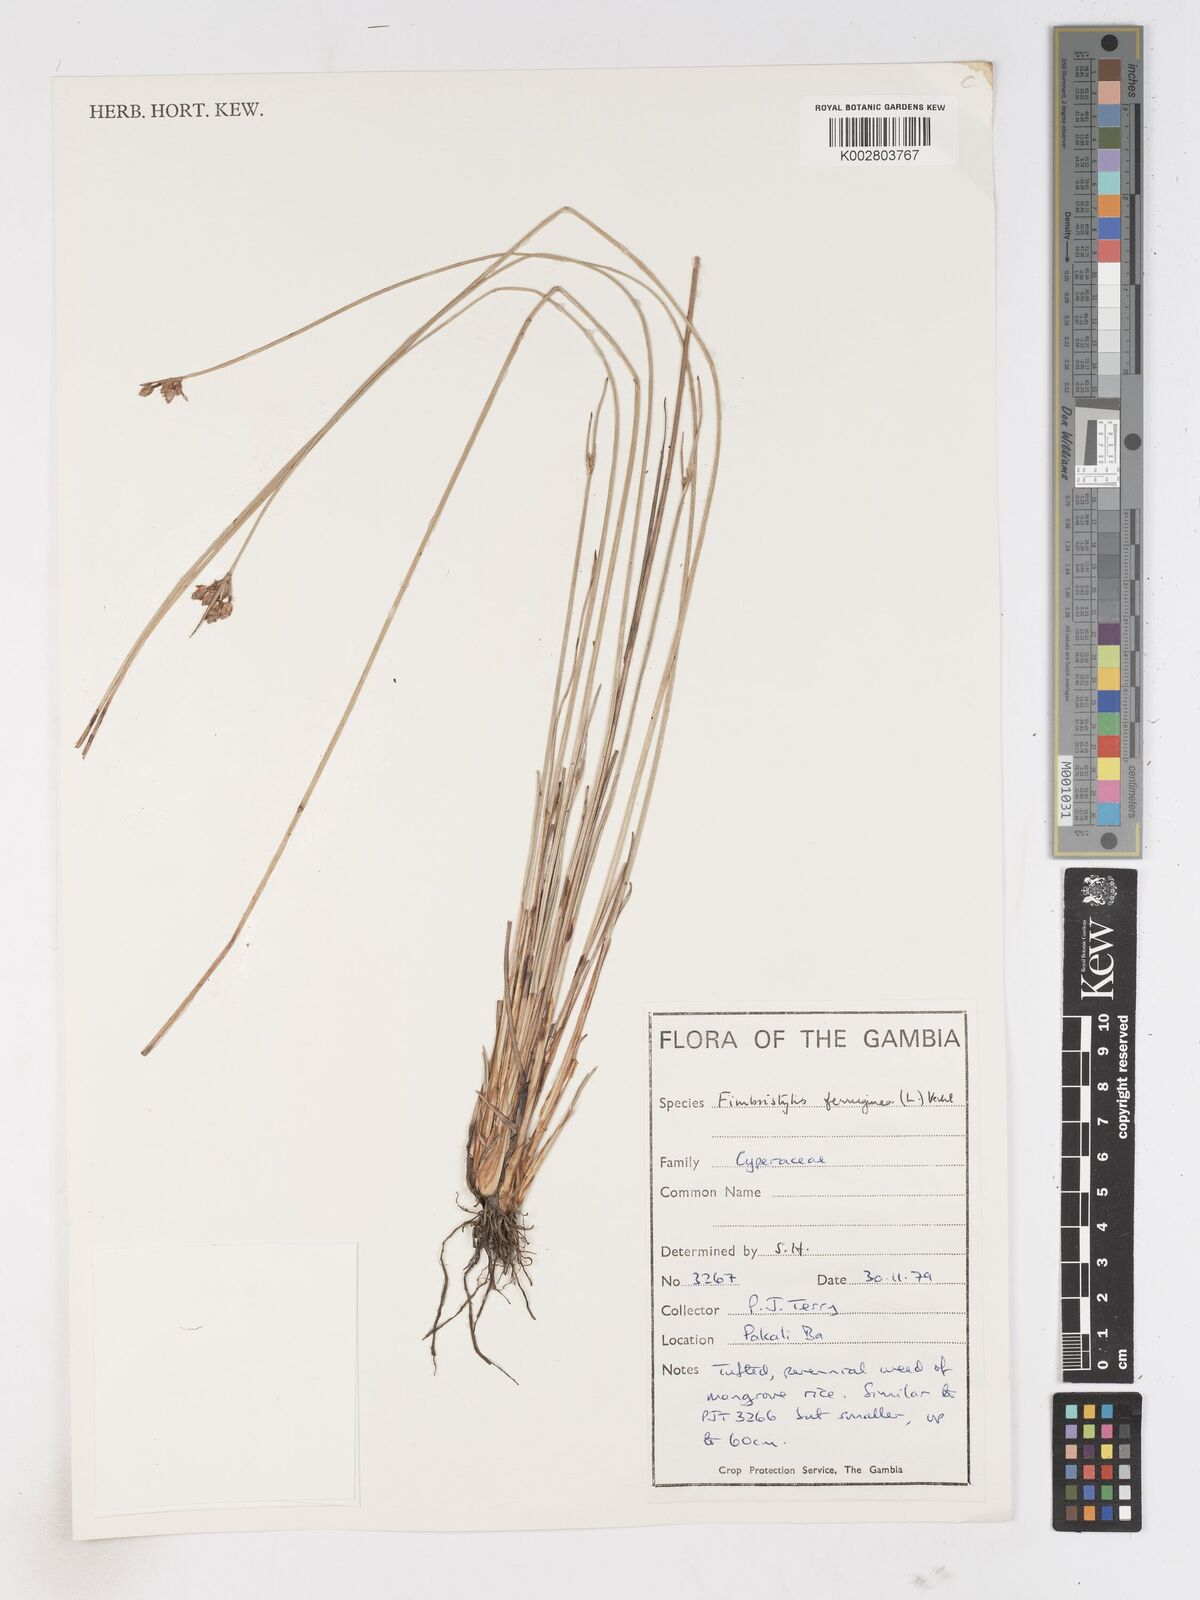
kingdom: Plantae
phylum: Tracheophyta
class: Liliopsida
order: Poales
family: Cyperaceae
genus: Fimbristylis
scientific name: Fimbristylis ferruginea
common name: West indian fimbry
